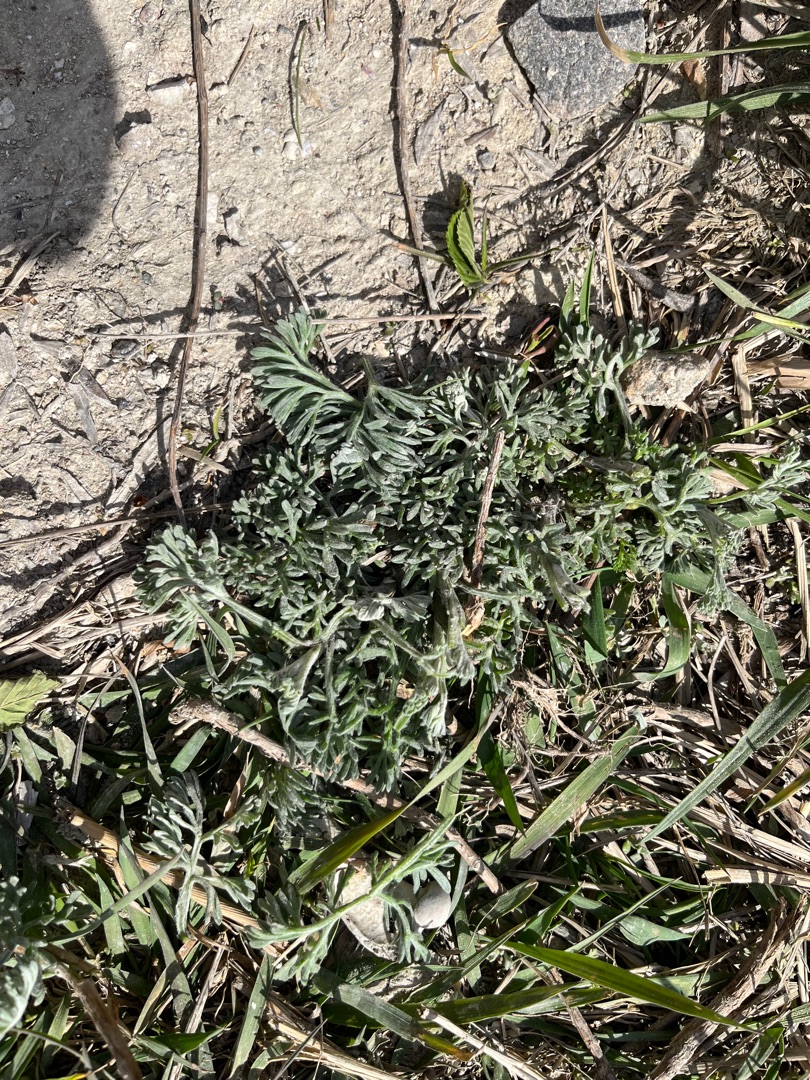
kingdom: Plantae
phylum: Tracheophyta
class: Magnoliopsida
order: Asterales
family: Asteraceae
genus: Artemisia
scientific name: Artemisia maritima
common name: Strandmalurt
